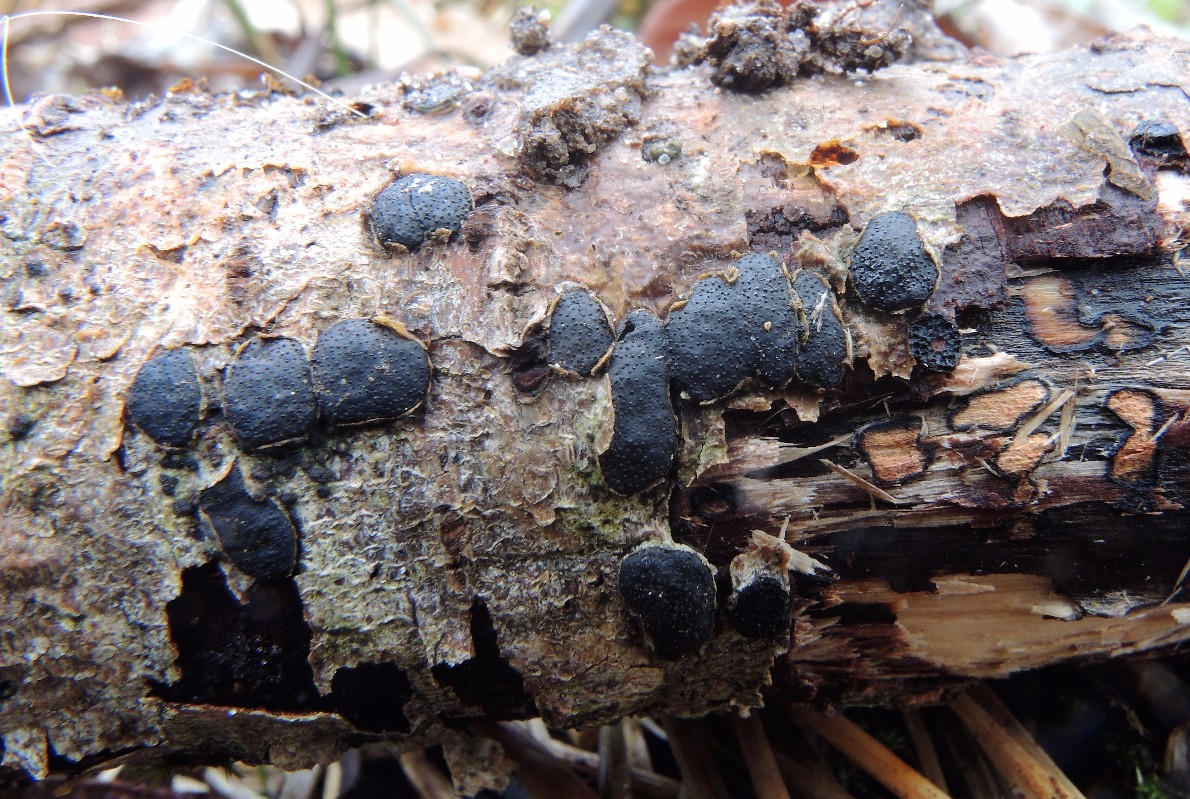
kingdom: Fungi
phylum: Ascomycota
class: Sordariomycetes
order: Xylariales
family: Diatrypaceae
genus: Diatrype
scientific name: Diatrype bullata
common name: pile-kulskorpe
